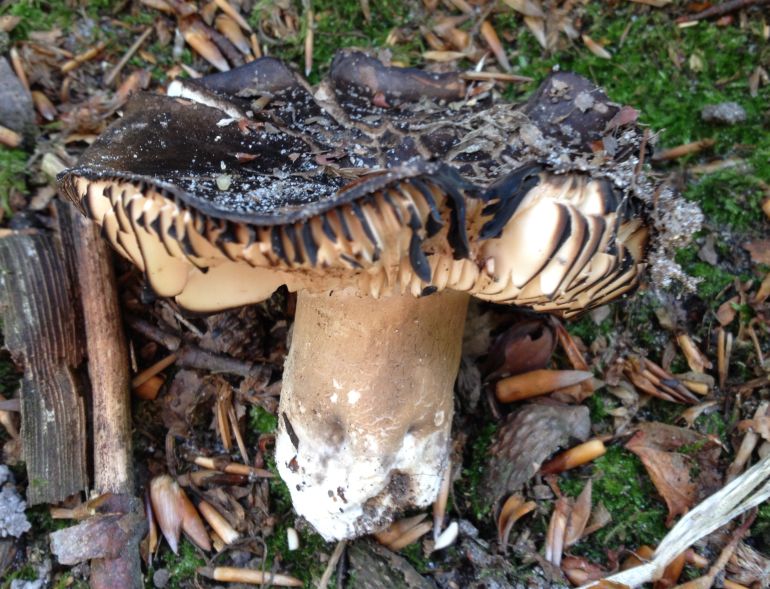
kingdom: Fungi
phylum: Basidiomycota
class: Agaricomycetes
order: Russulales
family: Russulaceae
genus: Russula
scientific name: Russula adusta
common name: sværtende skørhat
